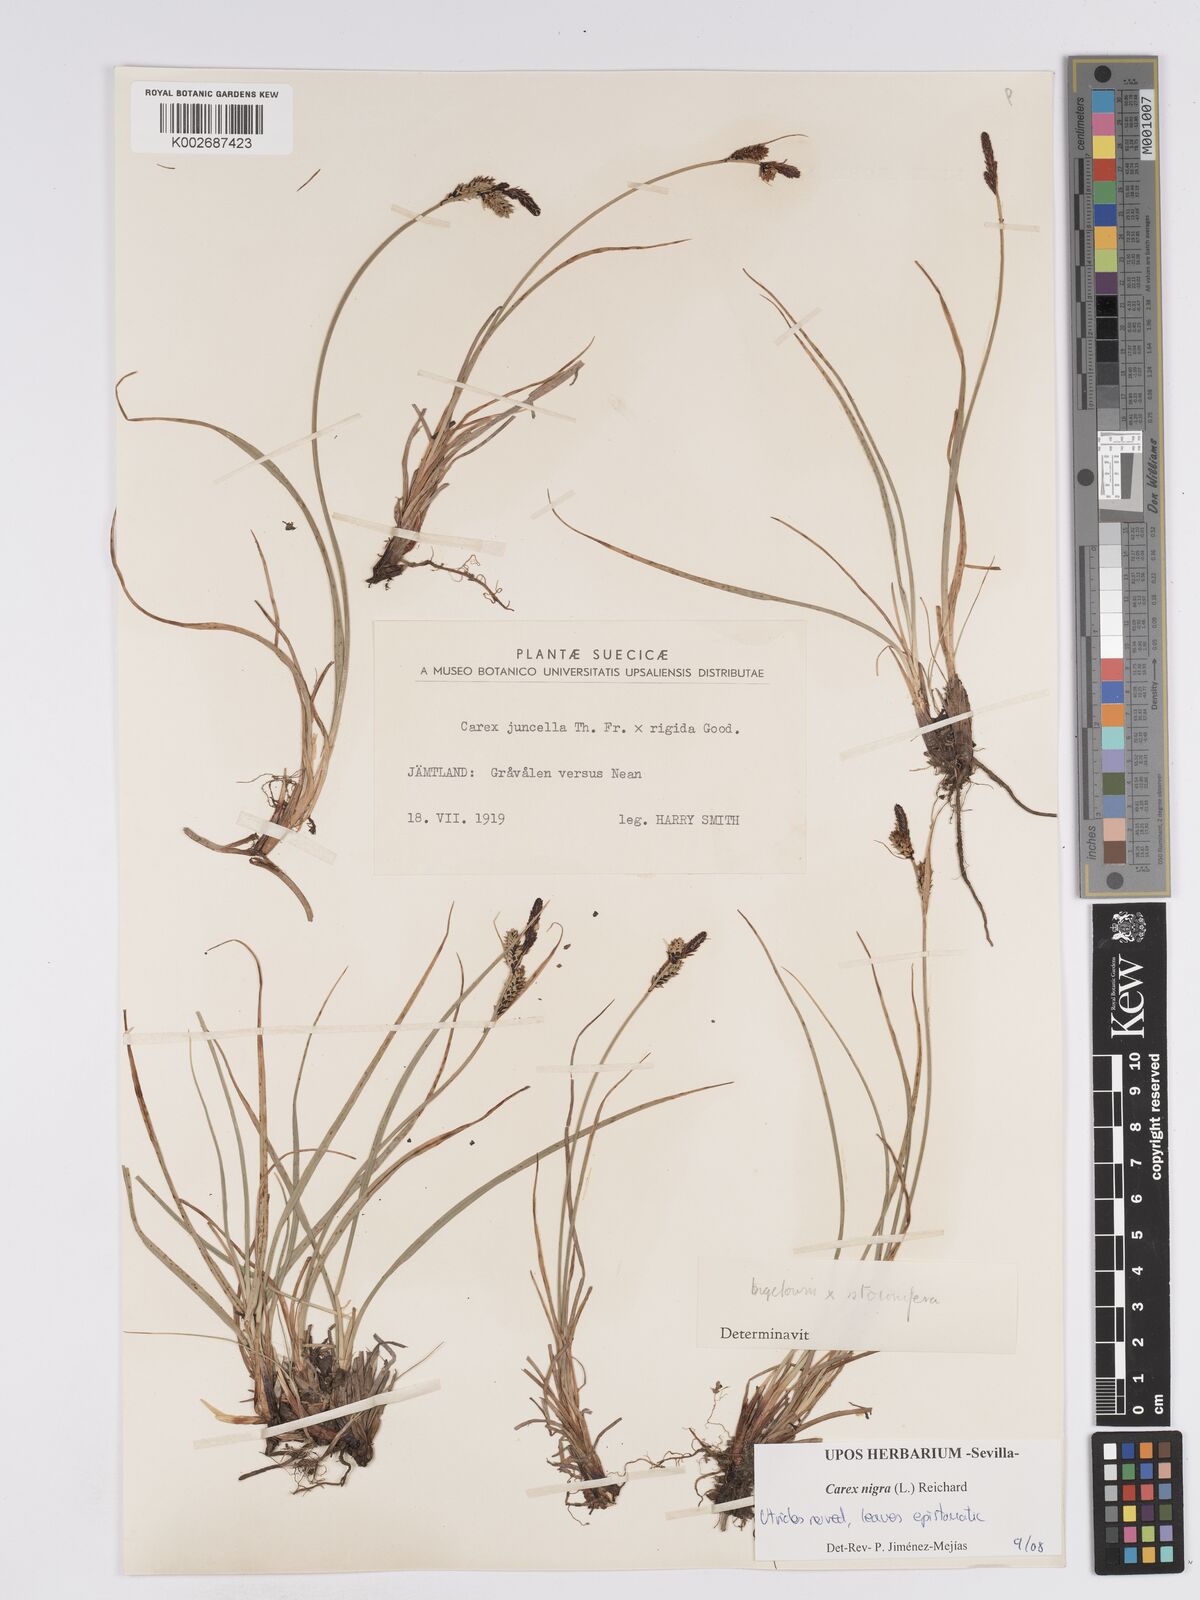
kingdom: Plantae
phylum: Tracheophyta
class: Liliopsida
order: Poales
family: Cyperaceae
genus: Carex
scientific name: Carex nigra
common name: Common sedge
